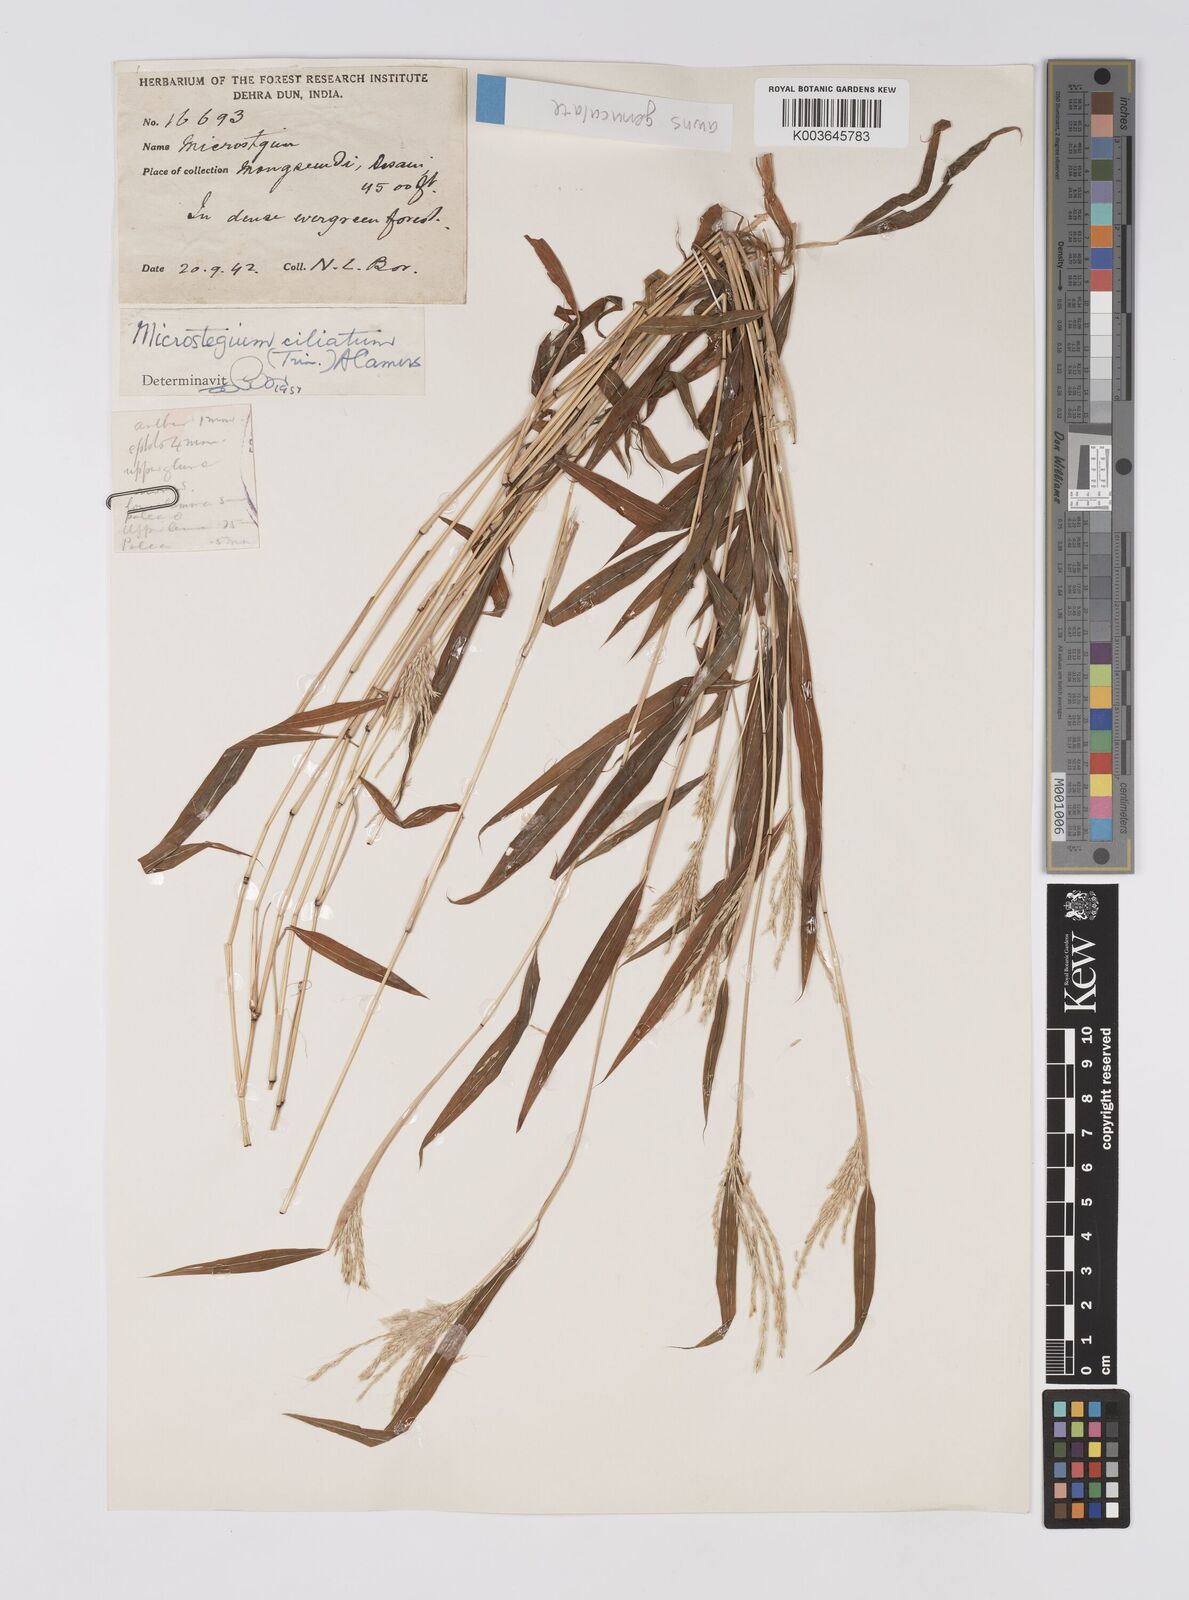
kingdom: Plantae
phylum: Tracheophyta
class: Liliopsida
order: Poales
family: Poaceae
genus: Microstegium
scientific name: Microstegium fasciculatum
